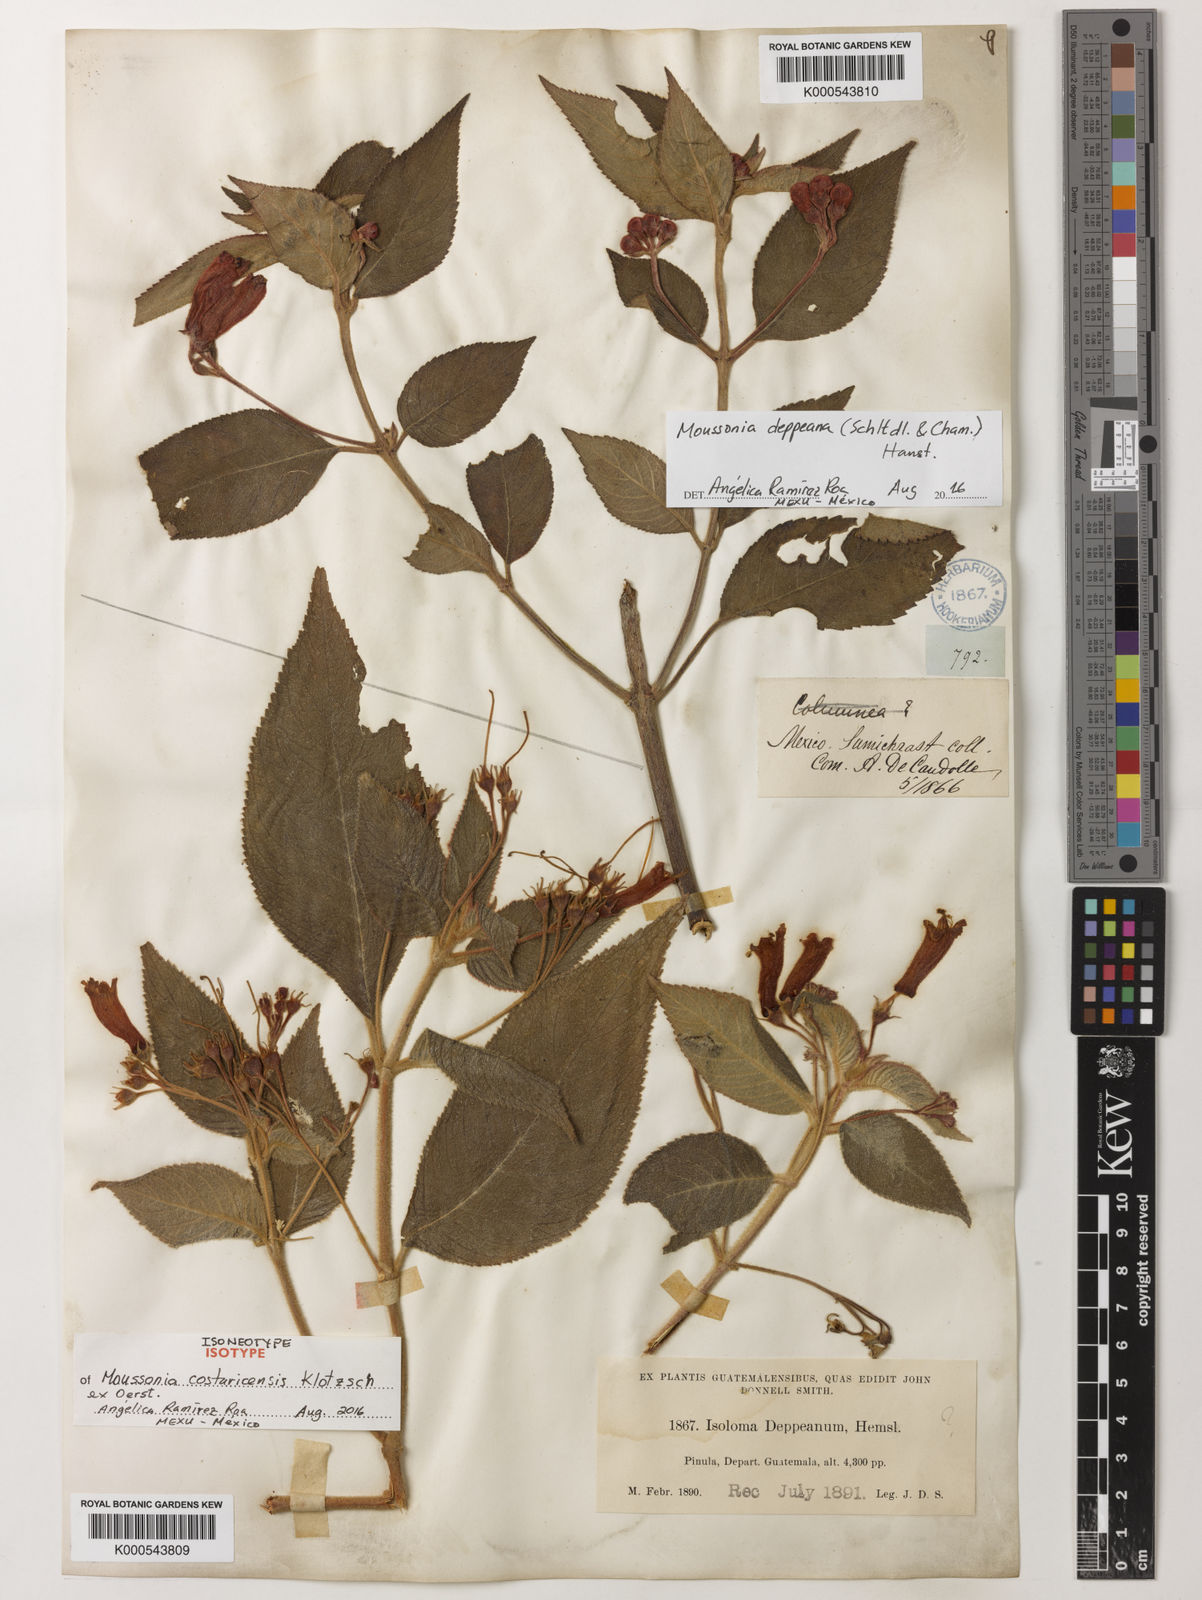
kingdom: Plantae
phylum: Tracheophyta
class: Magnoliopsida
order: Lamiales
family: Gesneriaceae
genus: Moussonia
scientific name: Moussonia deppeana
